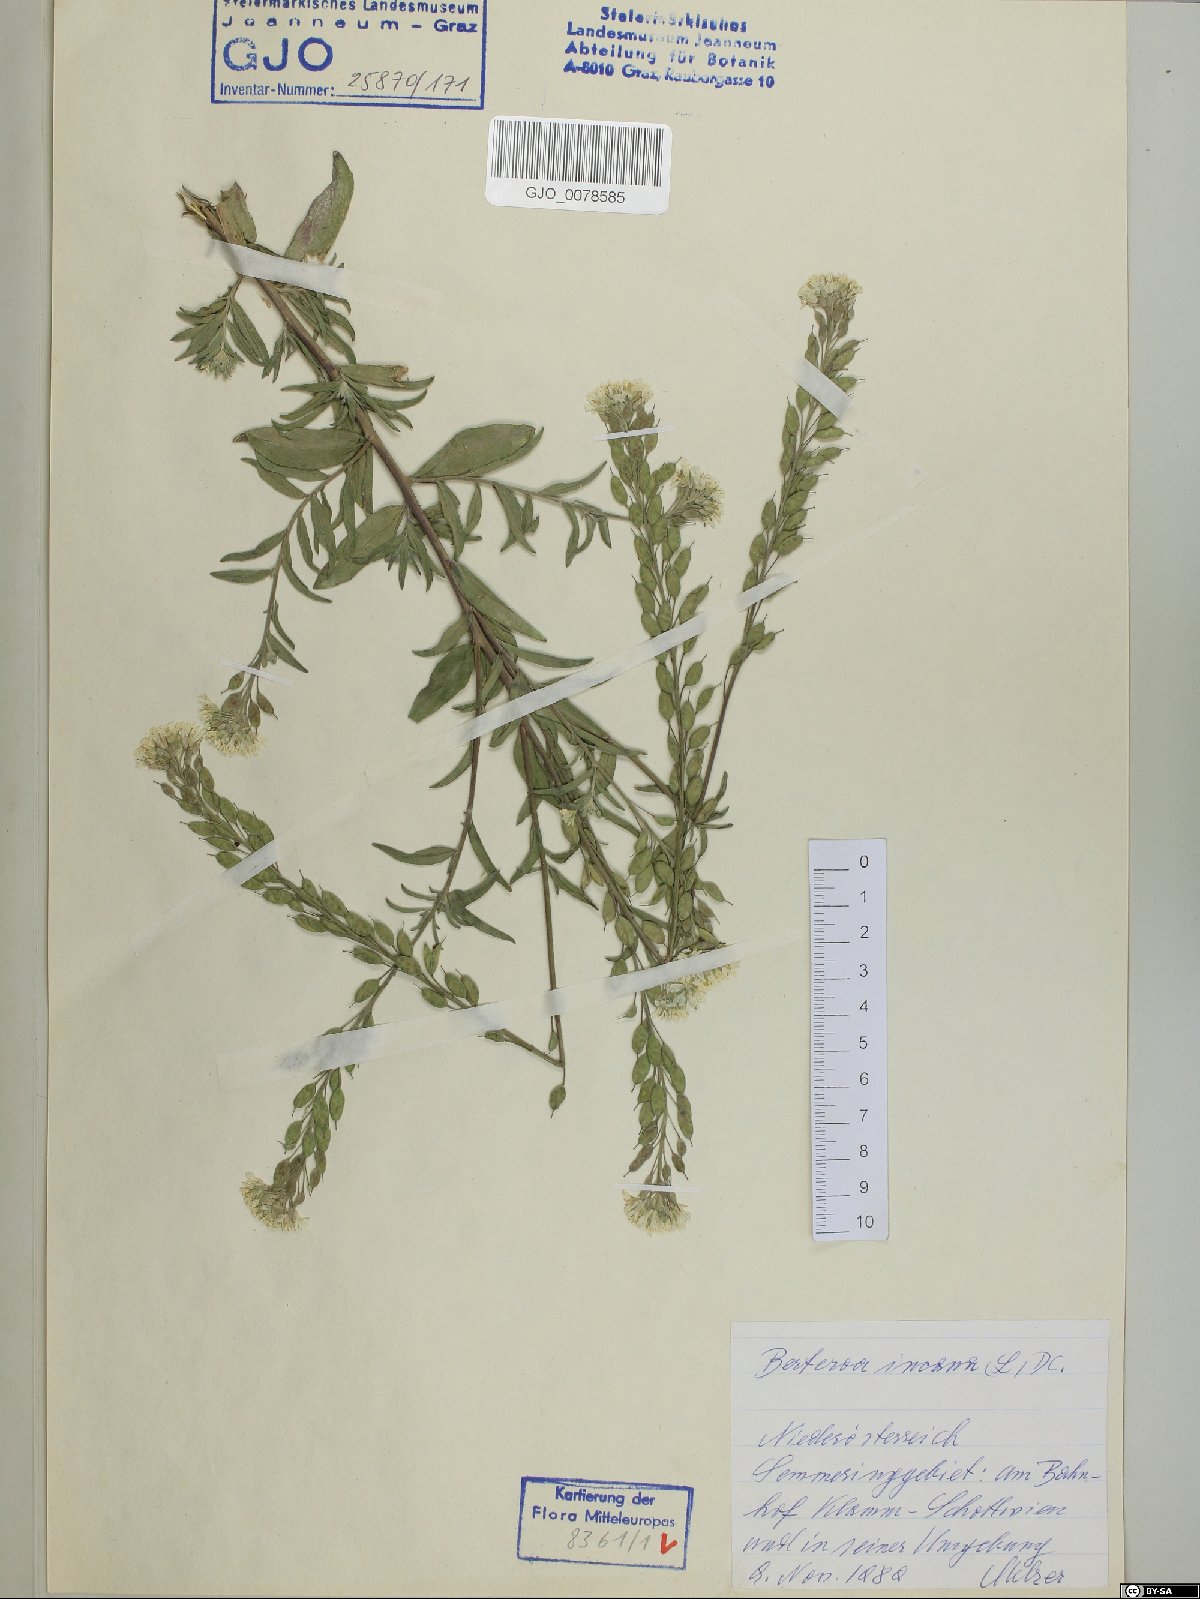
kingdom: Plantae
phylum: Tracheophyta
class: Magnoliopsida
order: Brassicales
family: Brassicaceae
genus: Berteroa
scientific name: Berteroa incana
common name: Hoary alison
